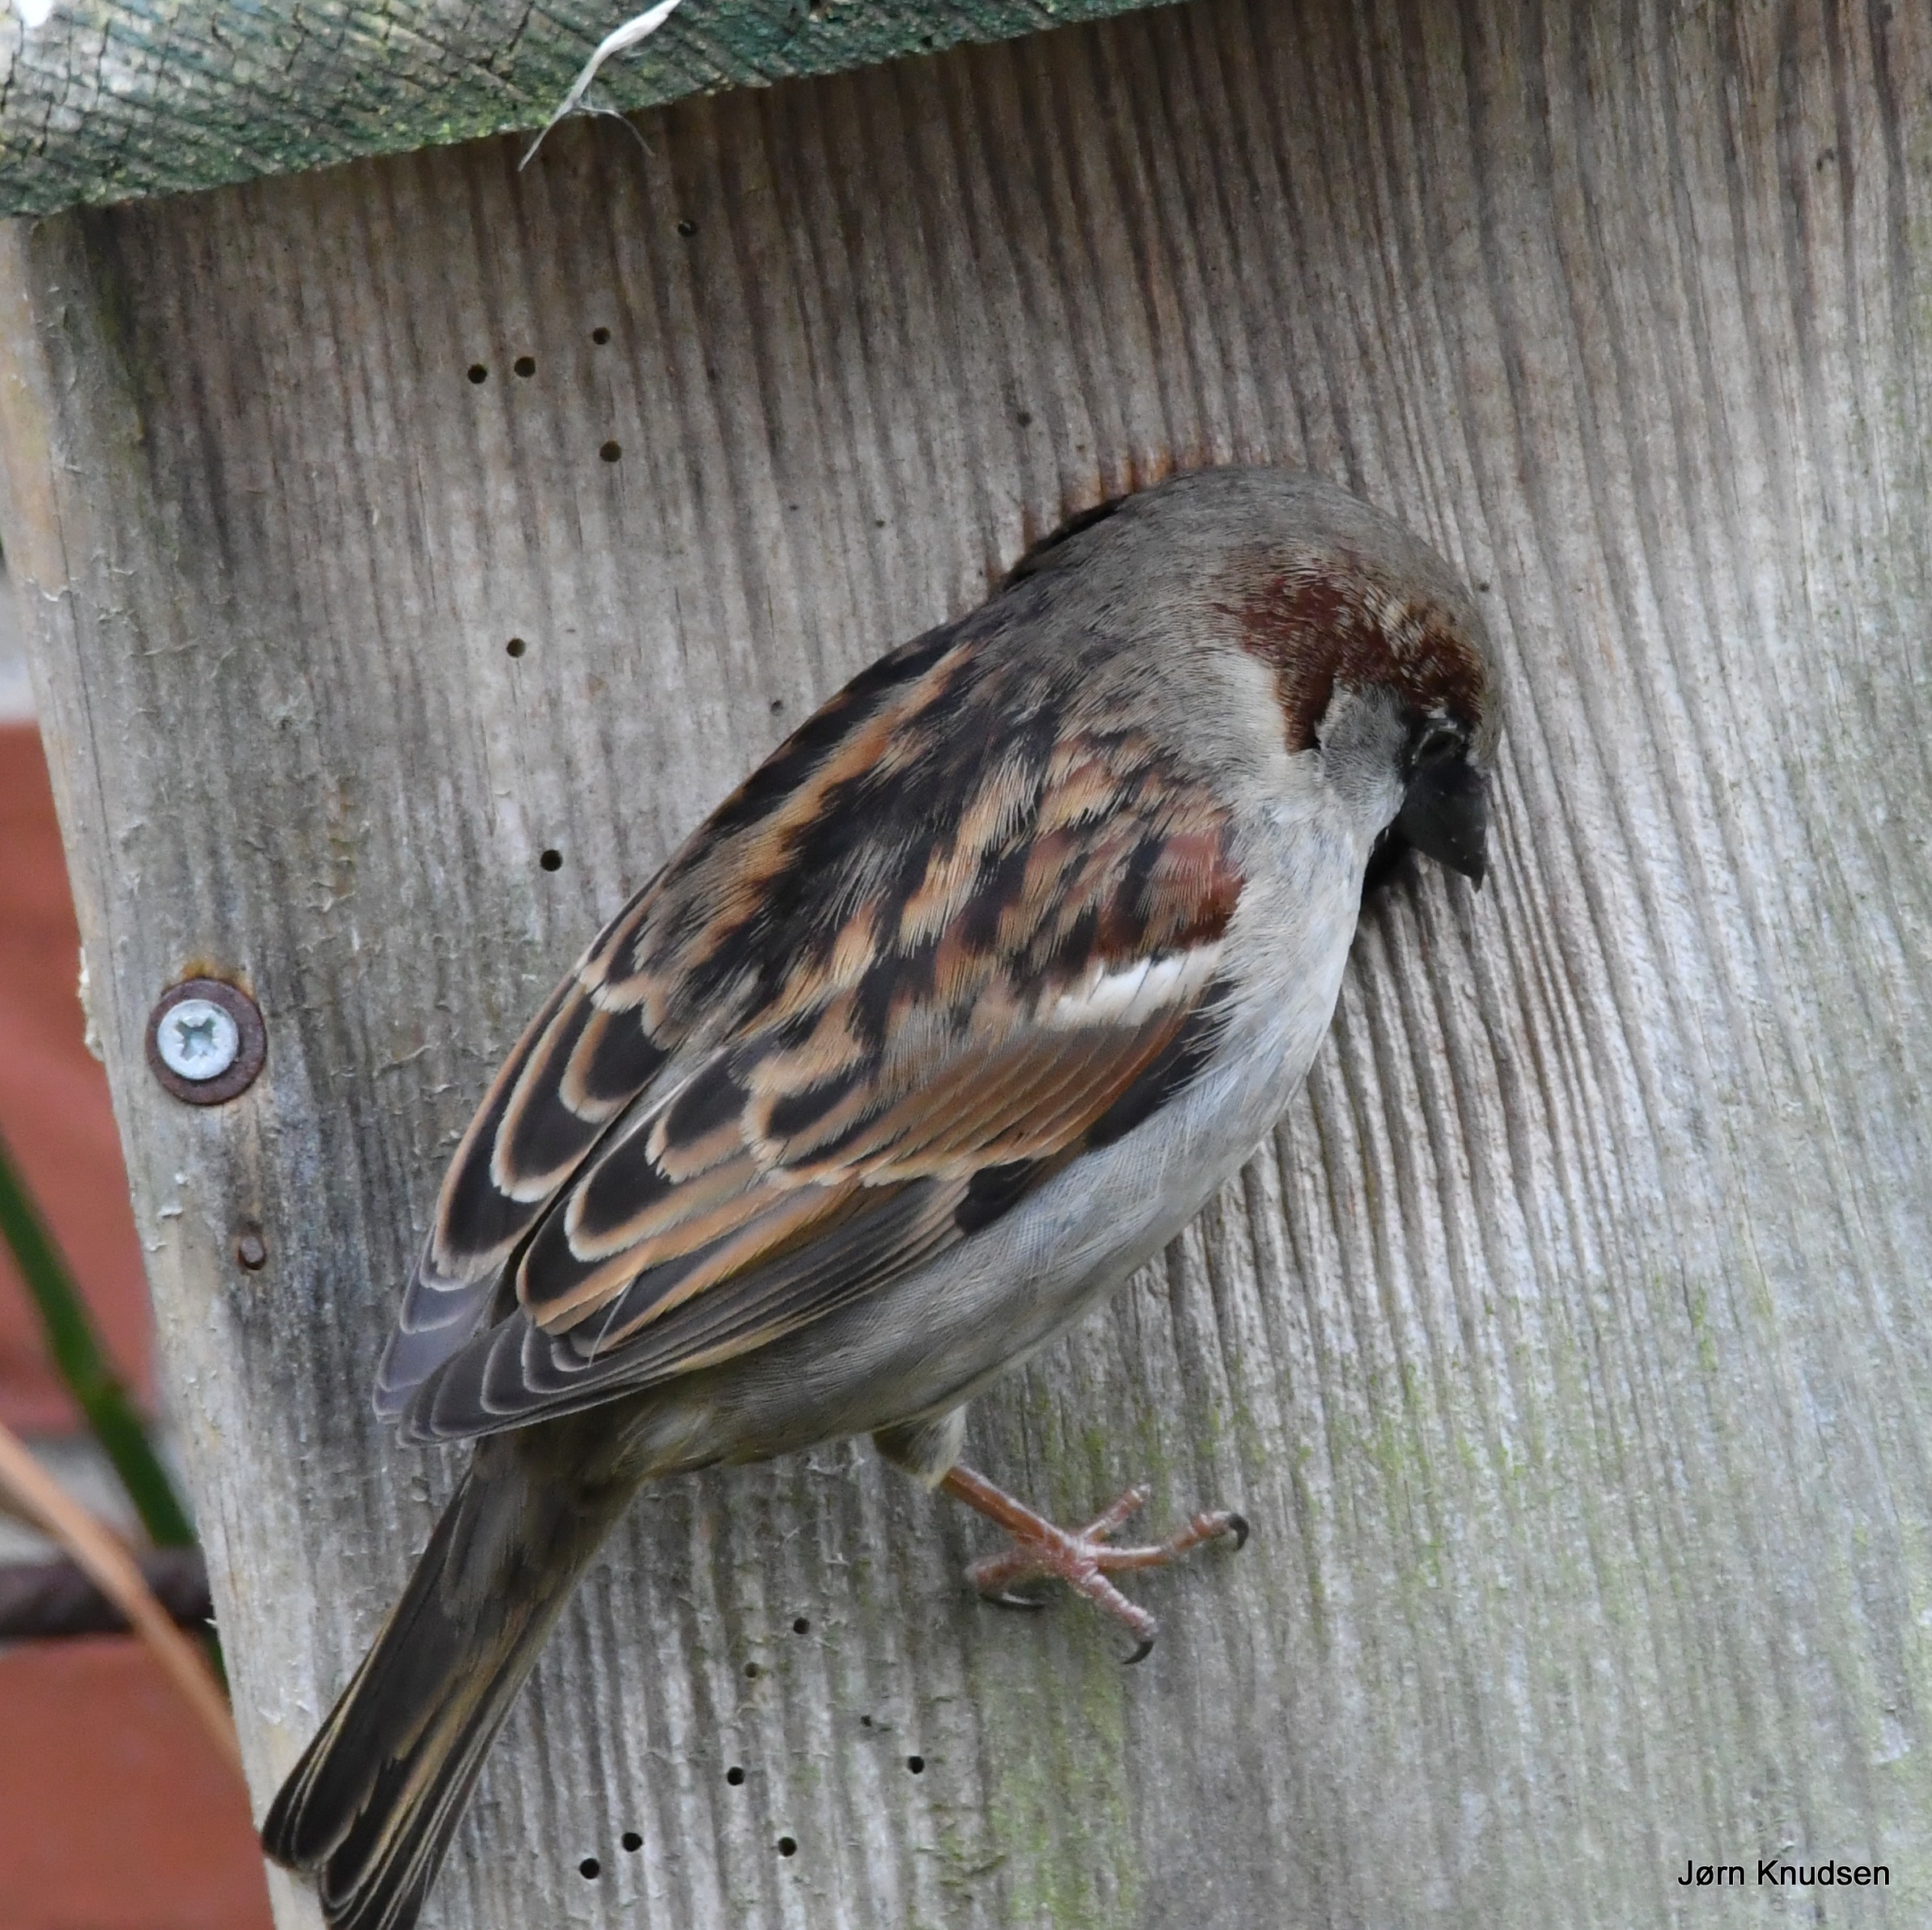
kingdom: Animalia
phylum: Chordata
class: Aves
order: Passeriformes
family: Passeridae
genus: Passer
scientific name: Passer domesticus
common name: Gråspurv
